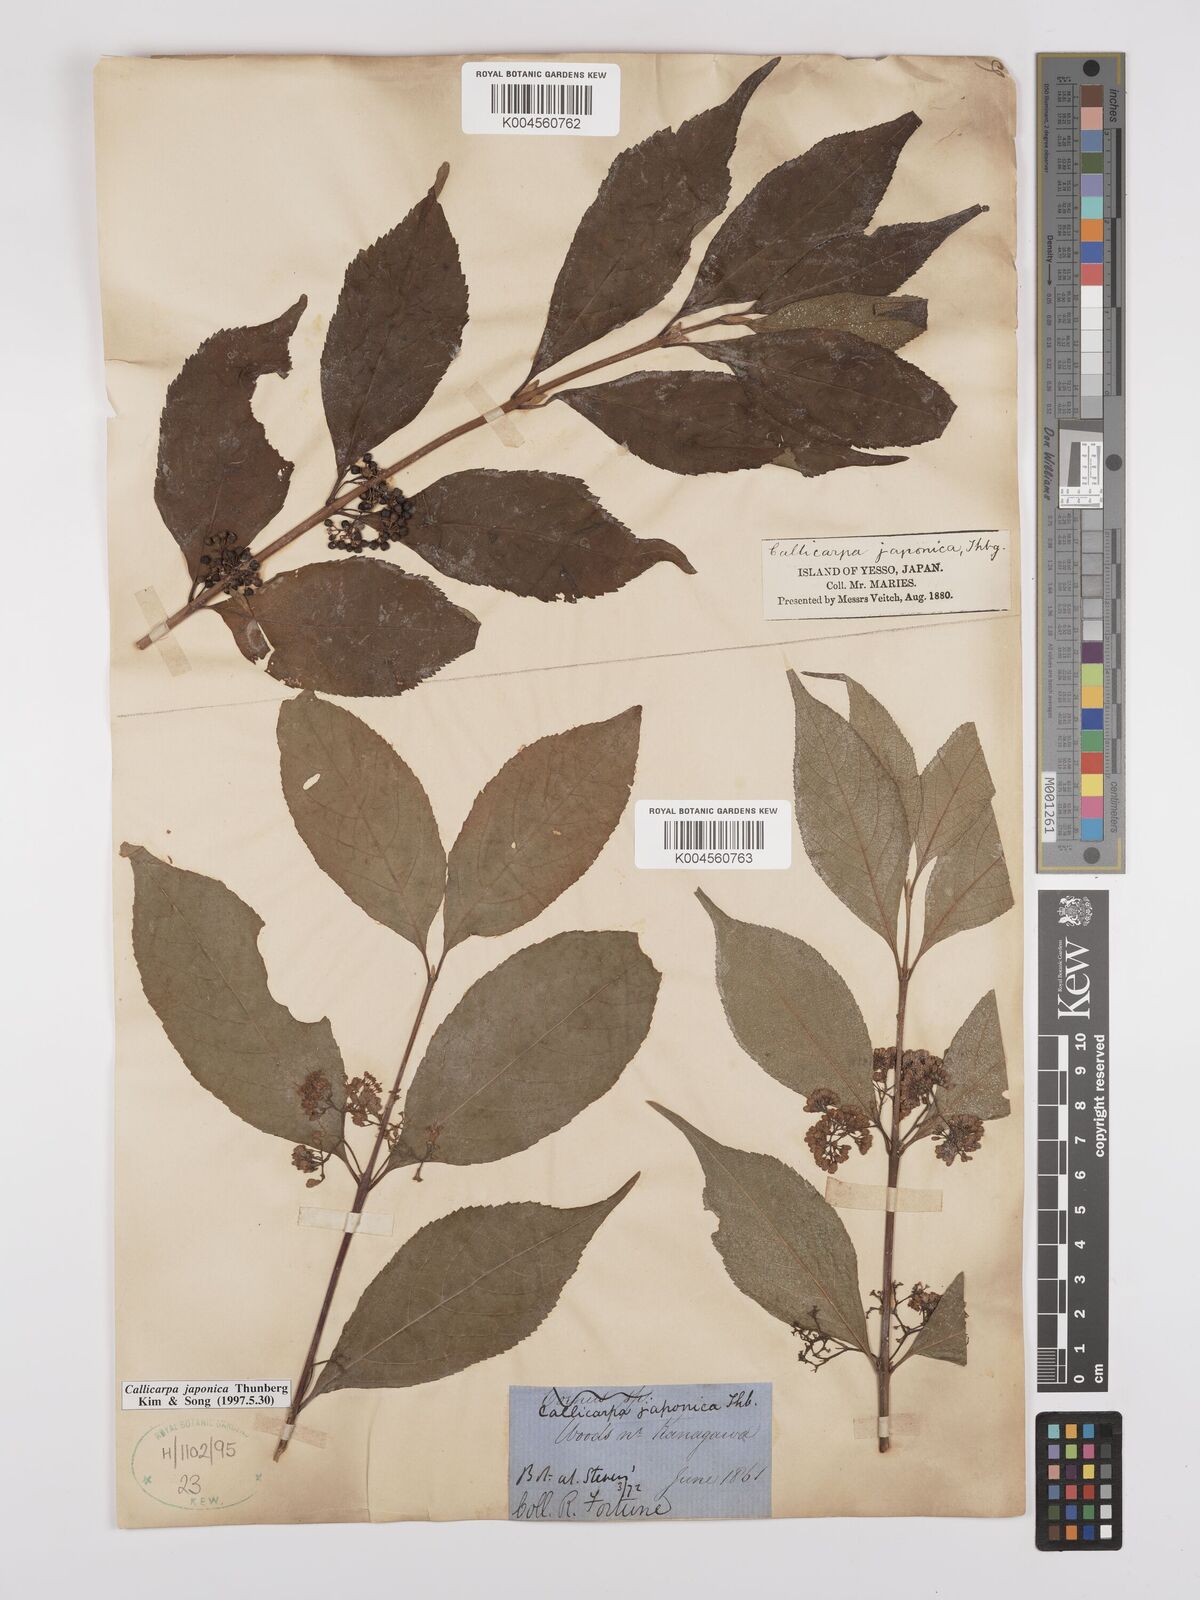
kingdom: Plantae
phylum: Tracheophyta
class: Magnoliopsida
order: Lamiales
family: Lamiaceae
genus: Callicarpa
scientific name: Callicarpa japonica
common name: Japanese beauty-berry
